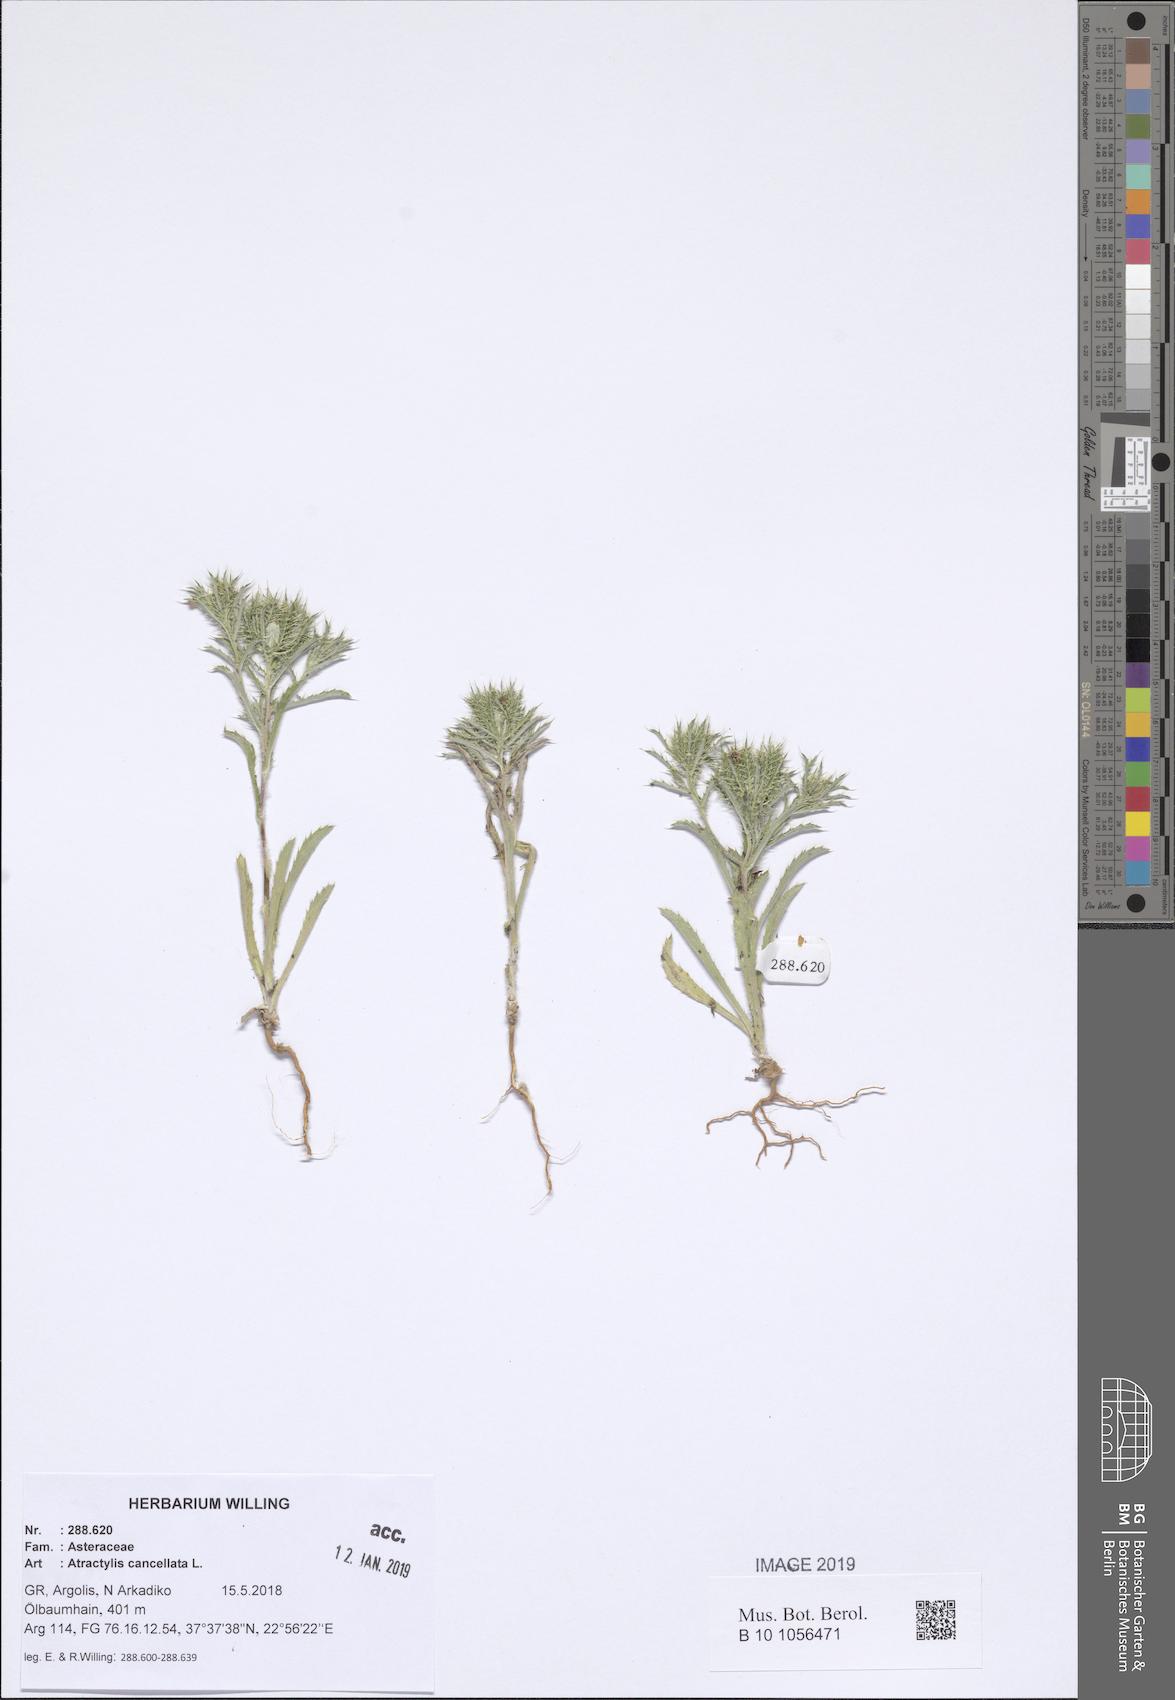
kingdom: Plantae
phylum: Tracheophyta
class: Magnoliopsida
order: Asterales
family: Asteraceae
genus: Atractylis
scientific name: Atractylis cancellata
